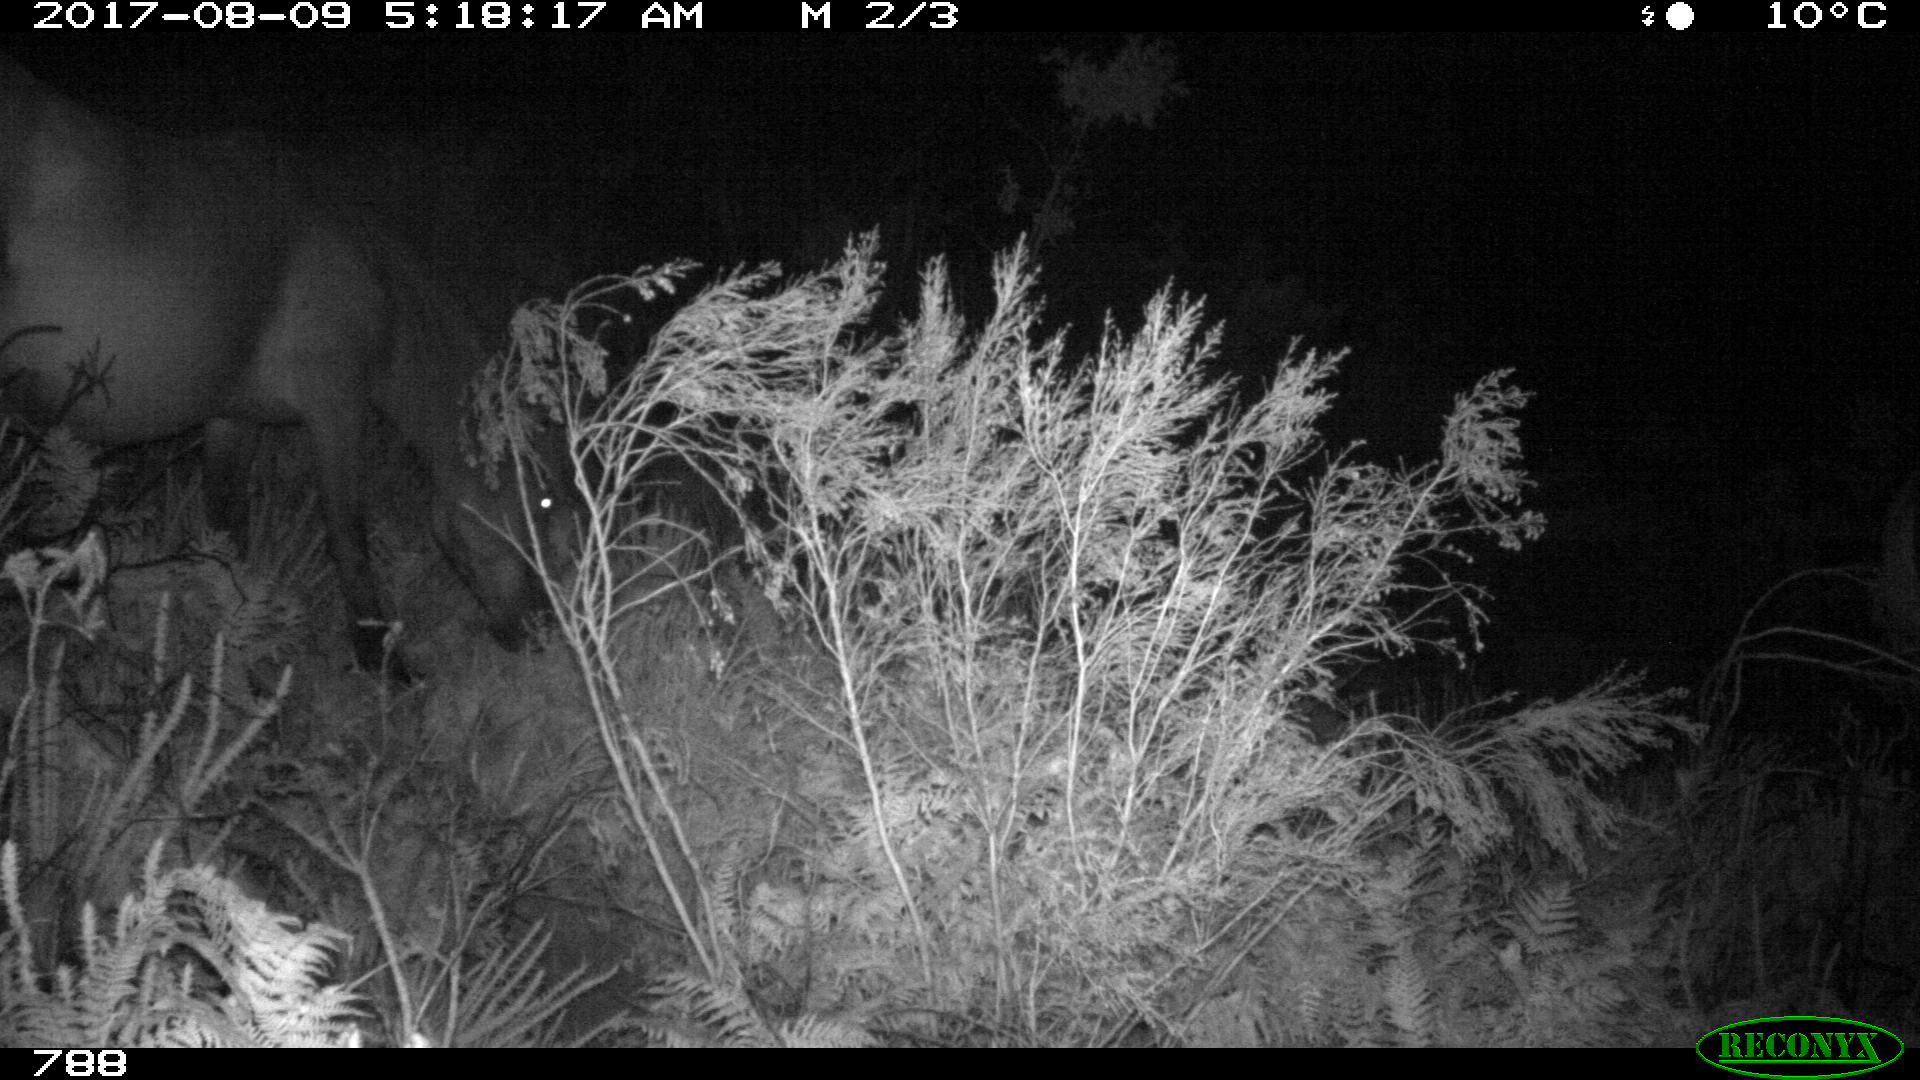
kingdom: Animalia
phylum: Chordata
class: Mammalia
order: Perissodactyla
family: Equidae
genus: Equus
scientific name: Equus caballus
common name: Horse
